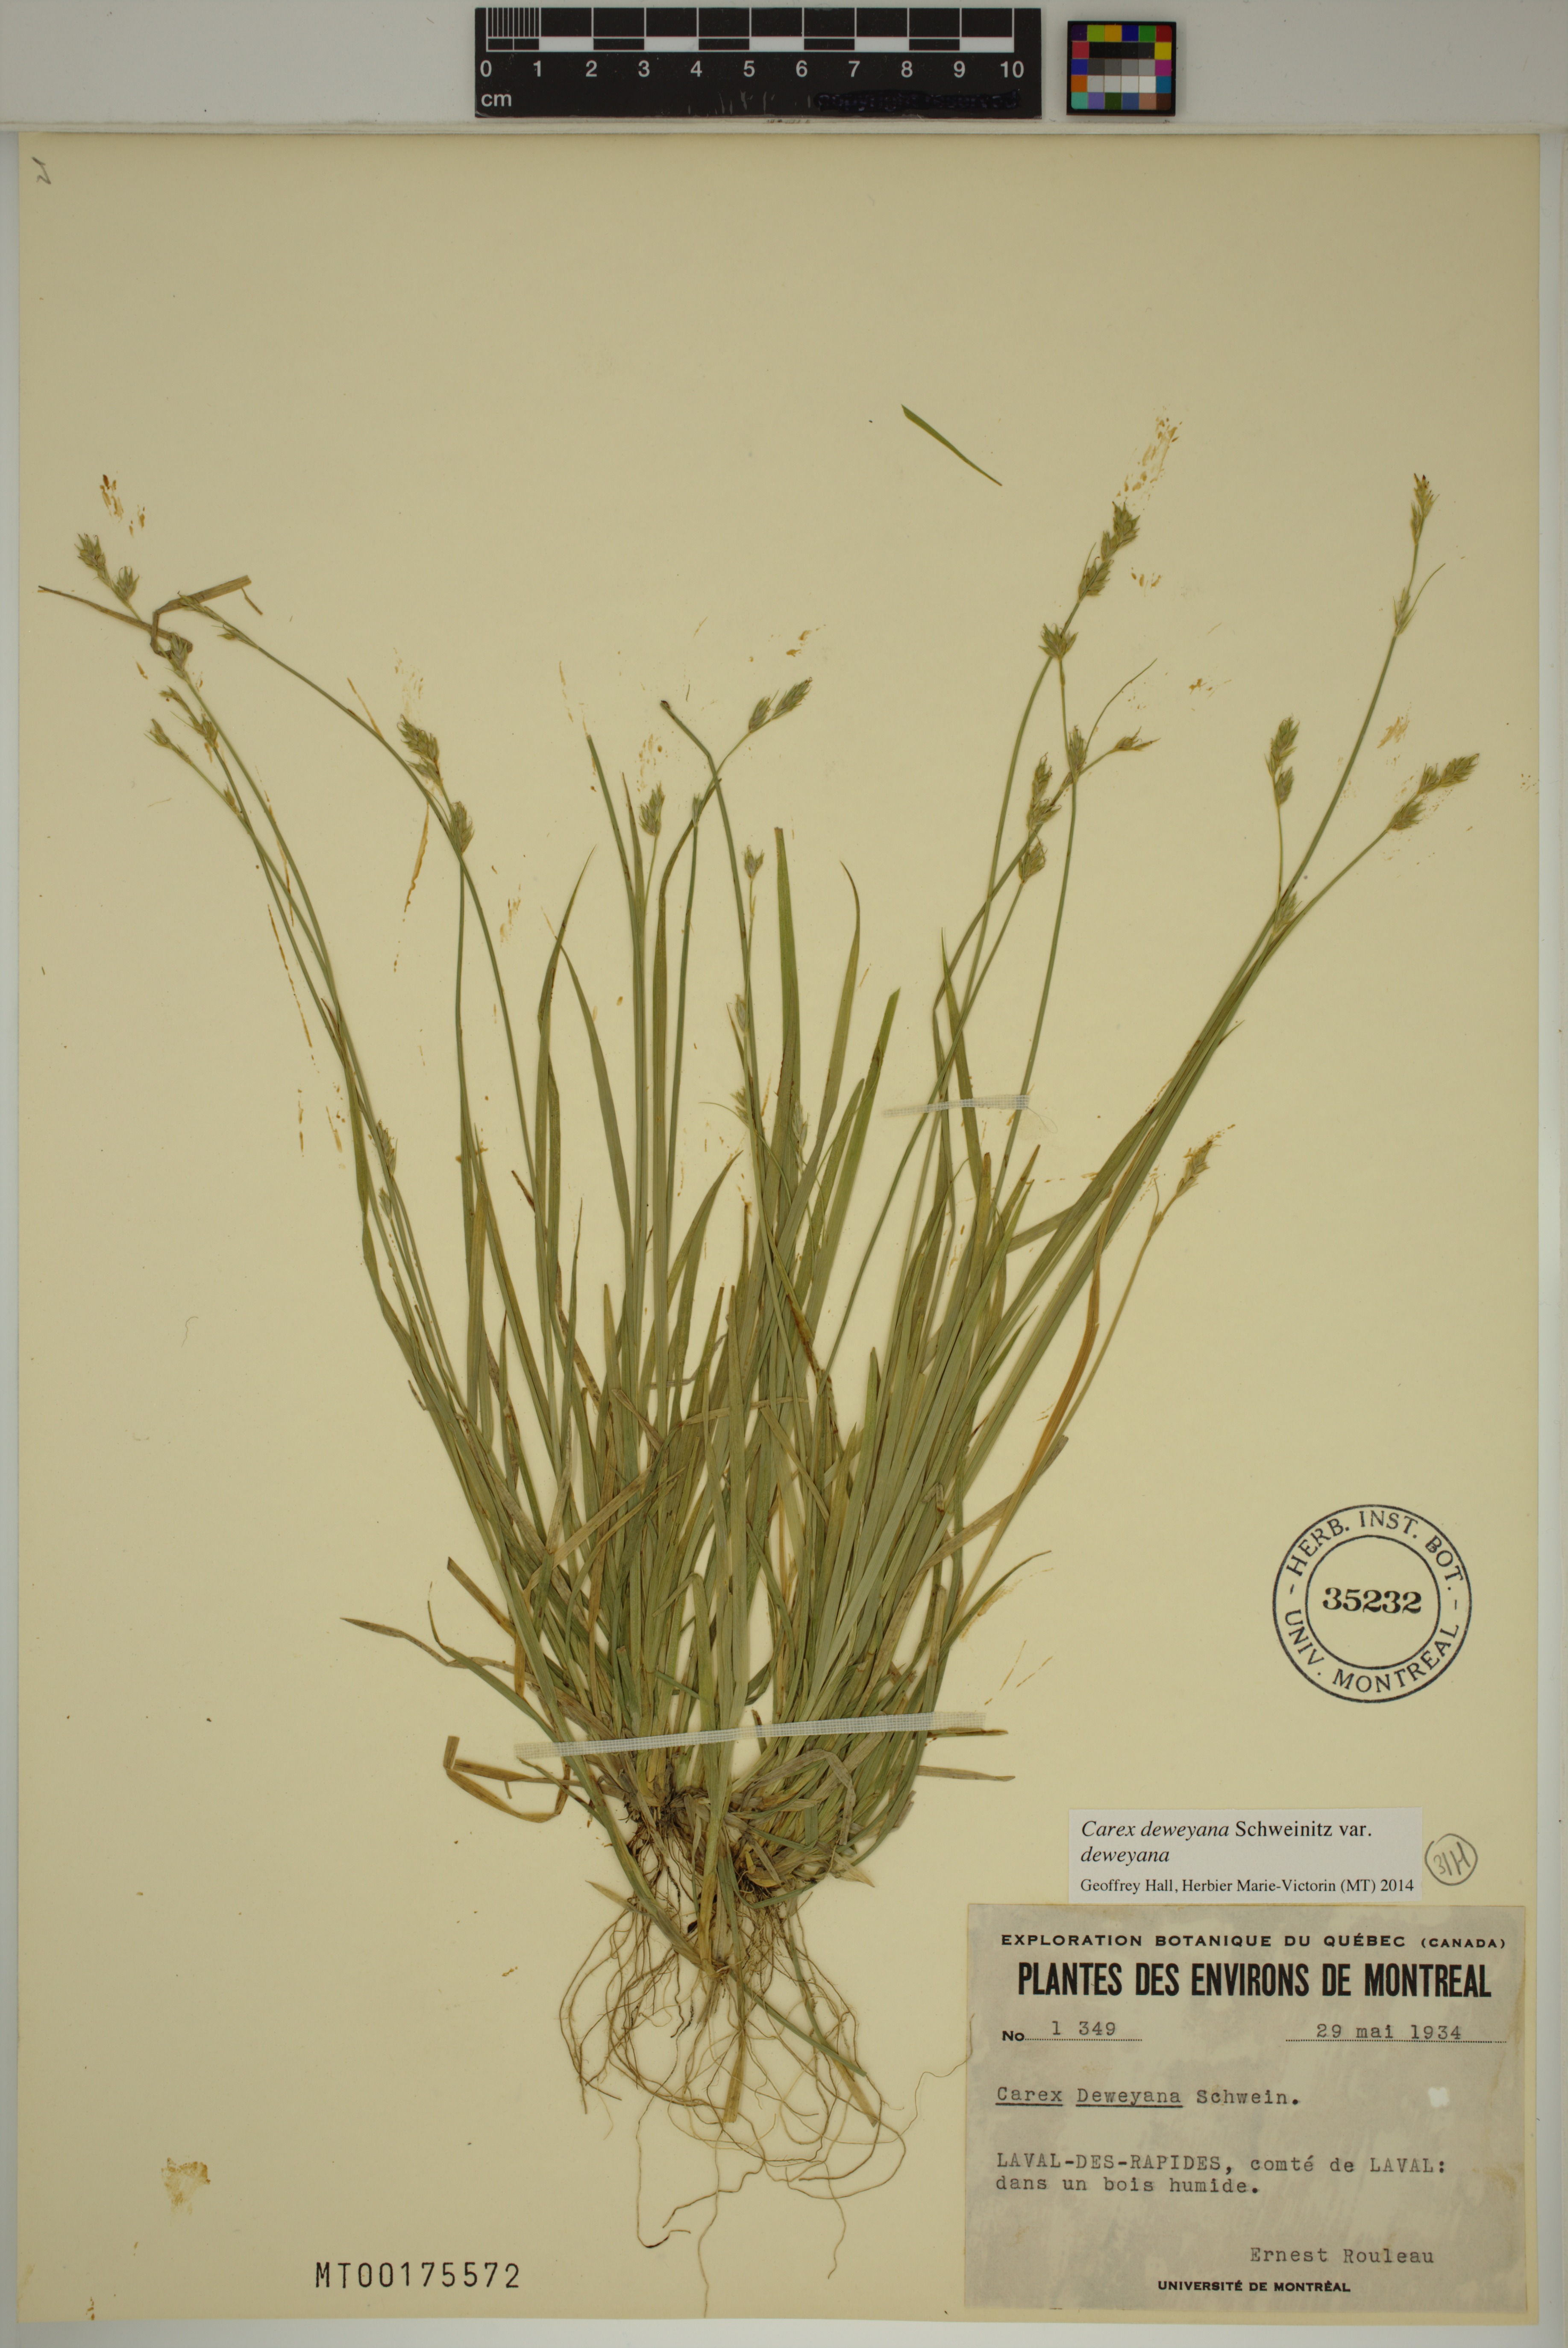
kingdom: Plantae
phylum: Tracheophyta
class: Liliopsida
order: Poales
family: Cyperaceae
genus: Carex
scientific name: Carex deweyana
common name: Dewey's sedge
